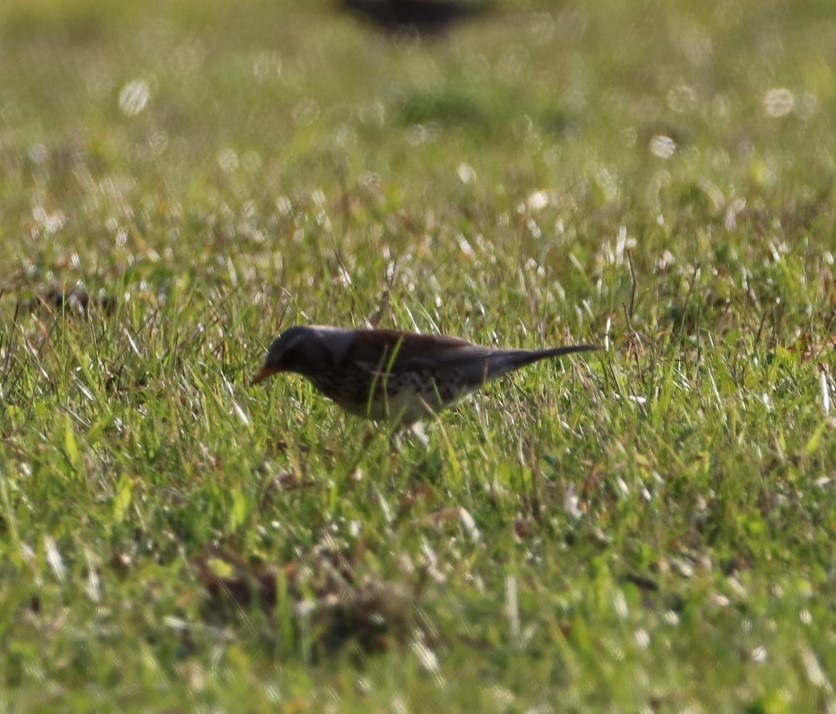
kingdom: Animalia
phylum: Chordata
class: Aves
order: Passeriformes
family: Turdidae
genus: Turdus
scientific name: Turdus pilaris
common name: Sjagger
